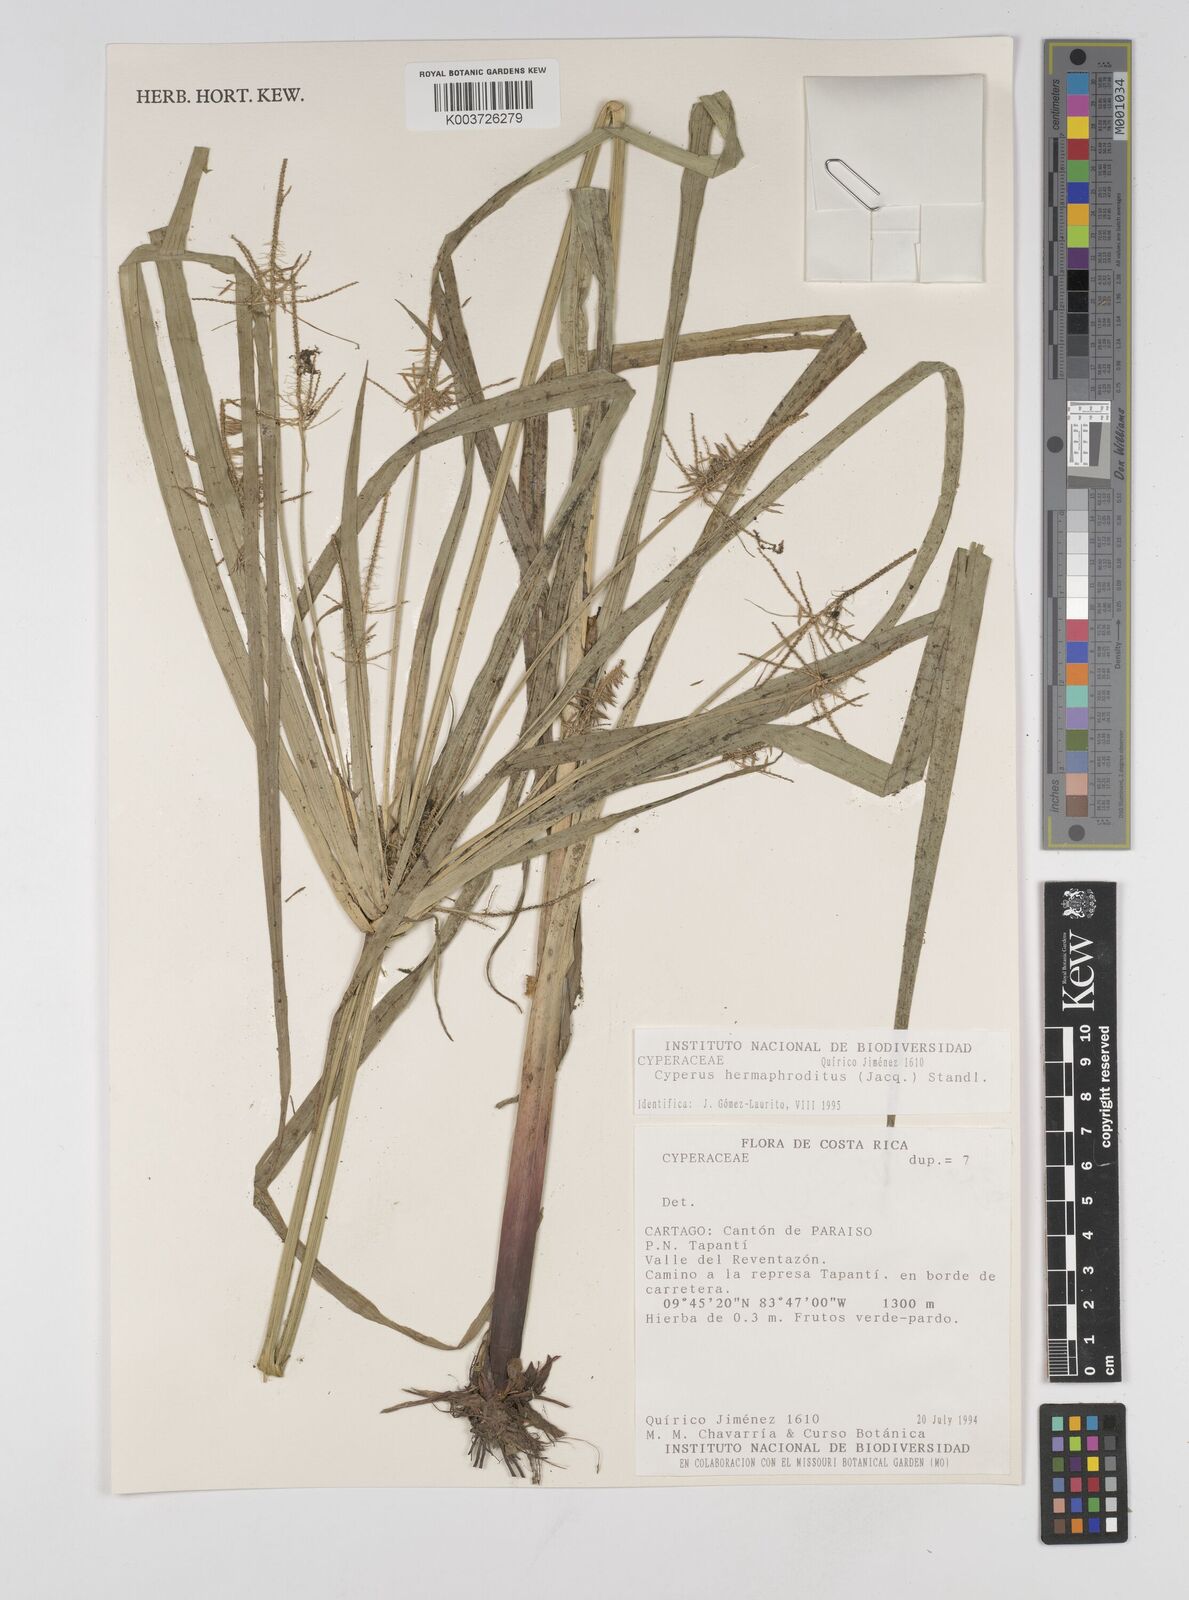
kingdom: Plantae
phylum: Tracheophyta
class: Liliopsida
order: Poales
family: Cyperaceae
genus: Cyperus
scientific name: Cyperus hermaphroditus
